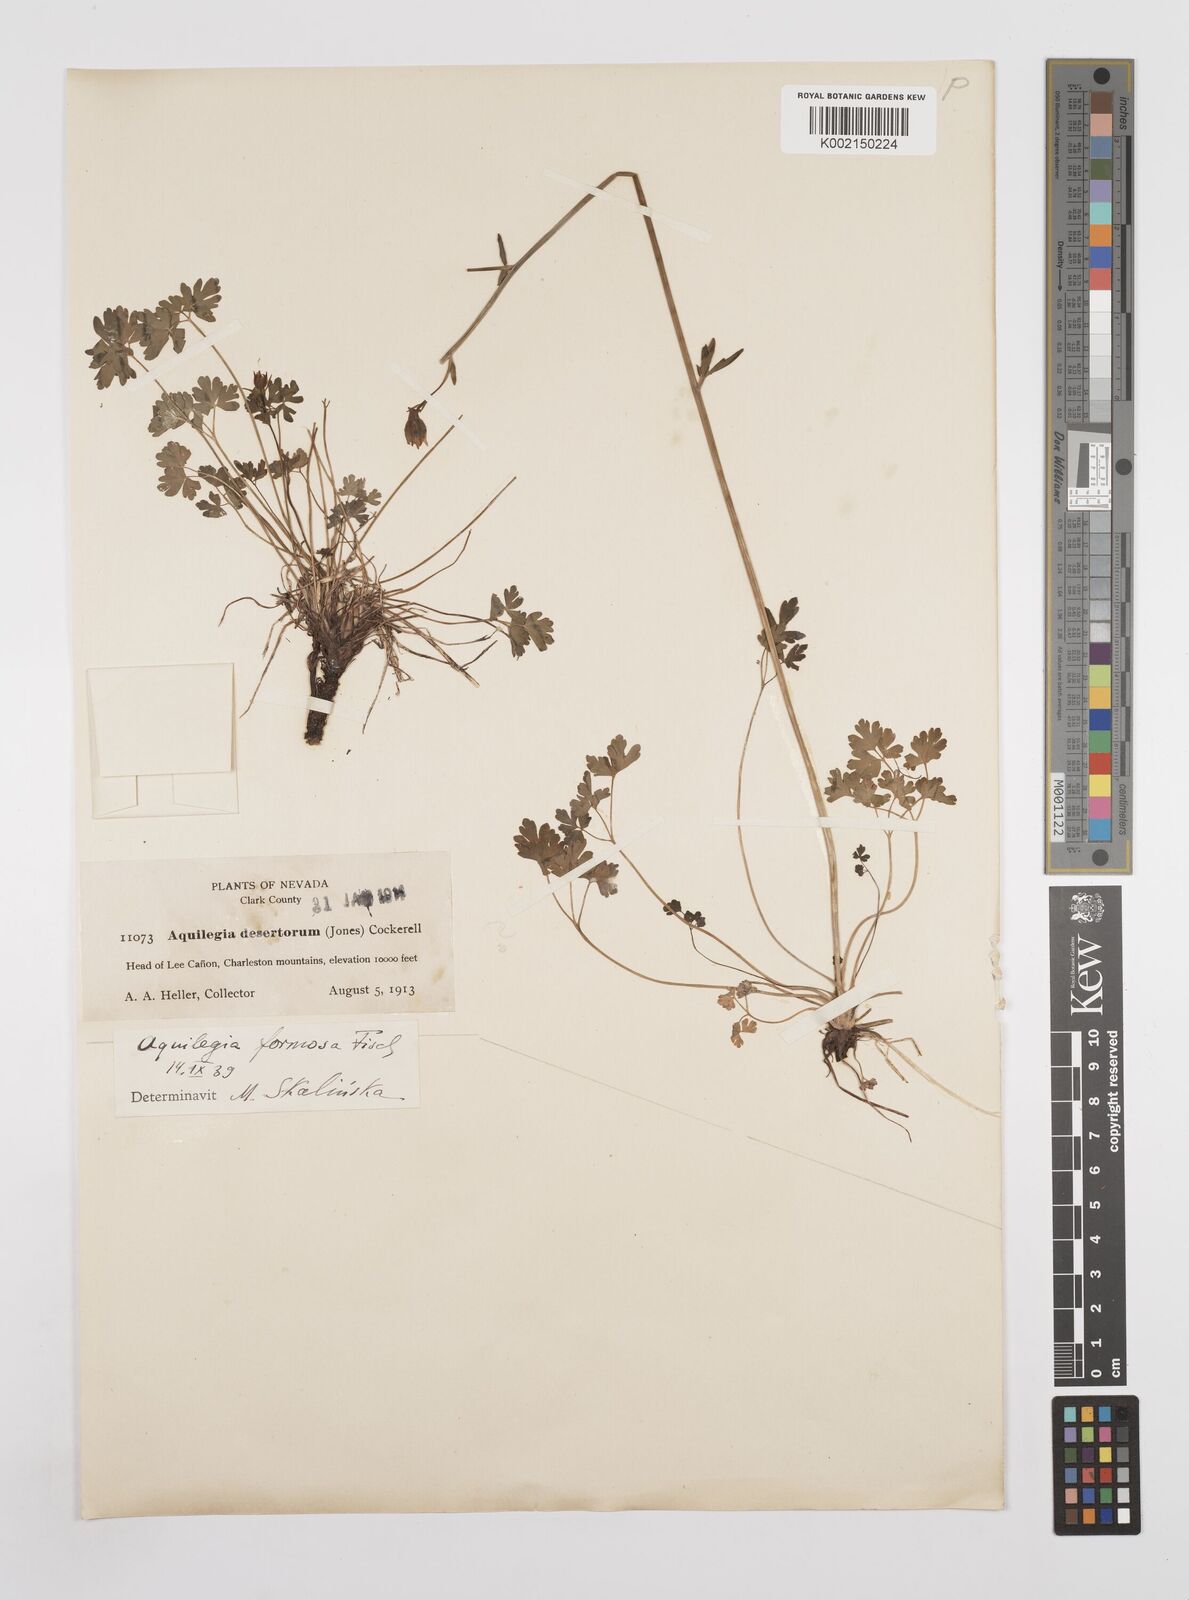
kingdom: Plantae
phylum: Tracheophyta
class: Magnoliopsida
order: Ranunculales
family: Ranunculaceae
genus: Aquilegia
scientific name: Aquilegia formosa
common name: Sitka columbine
